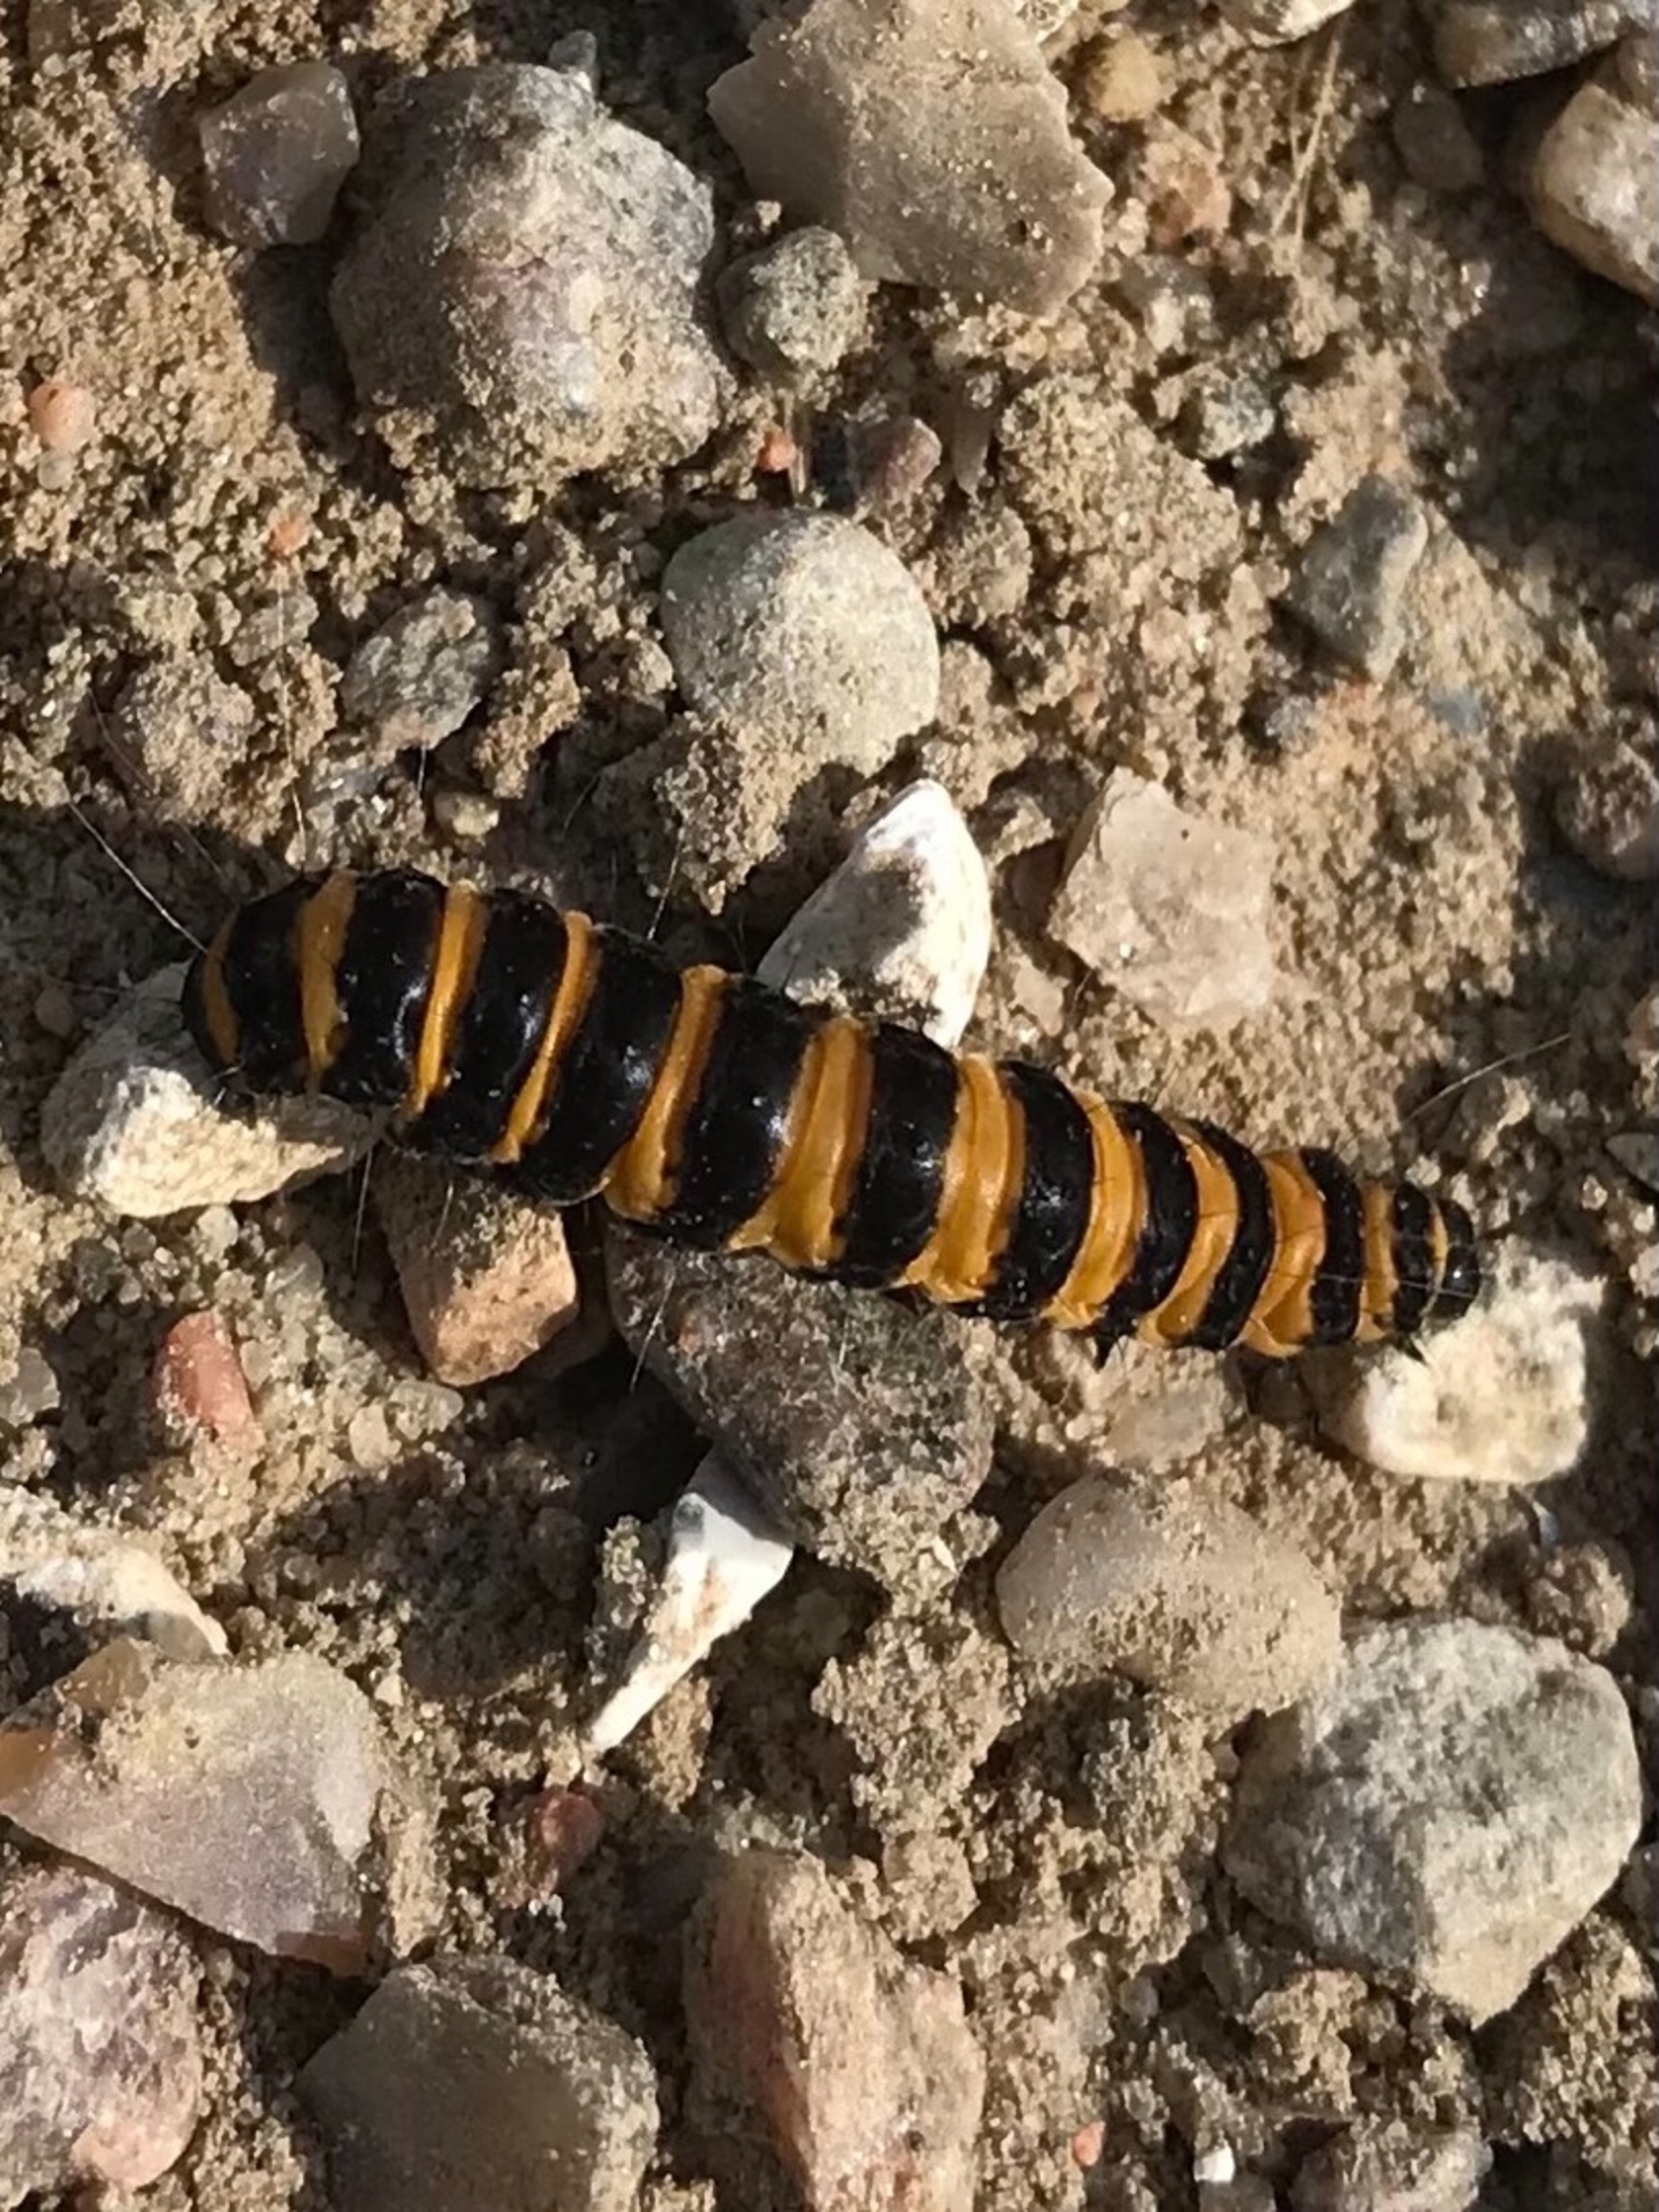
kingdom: Animalia
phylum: Arthropoda
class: Insecta
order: Lepidoptera
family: Erebidae
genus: Tyria
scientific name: Tyria jacobaeae
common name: Blodplet
